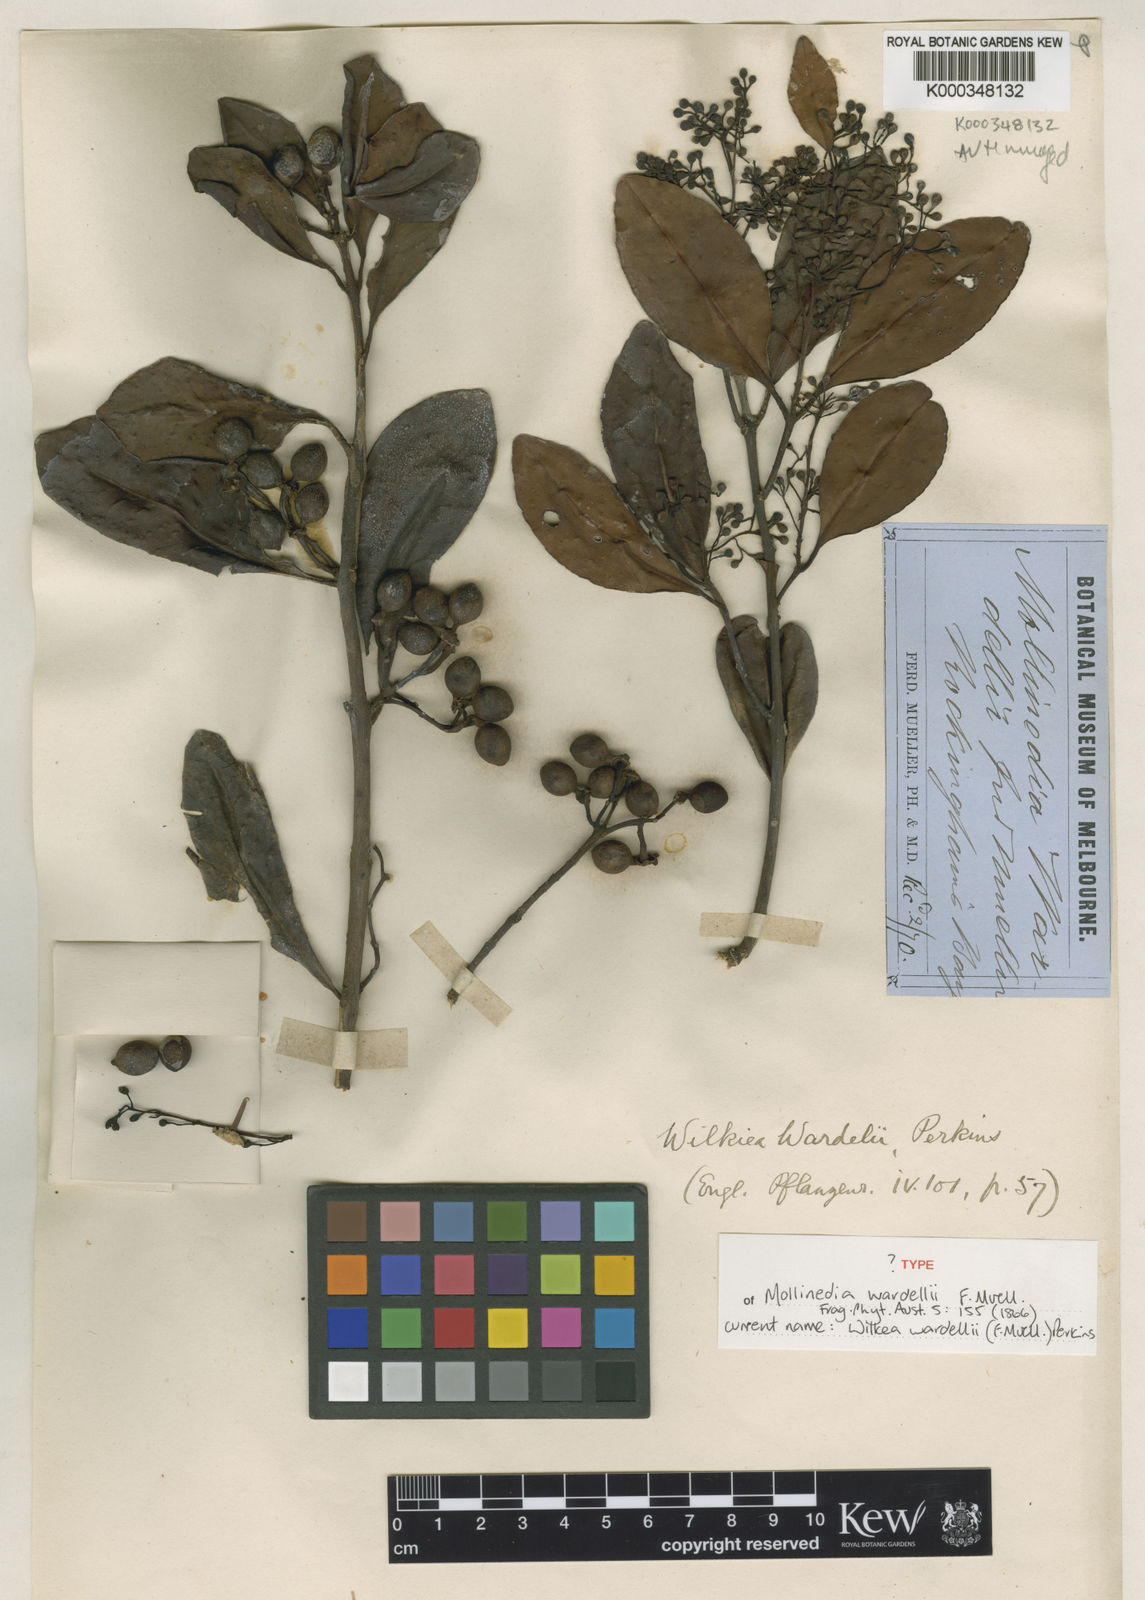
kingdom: Plantae
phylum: Tracheophyta
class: Magnoliopsida
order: Laurales
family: Monimiaceae
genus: Pendressia
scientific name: Pendressia wardellii
